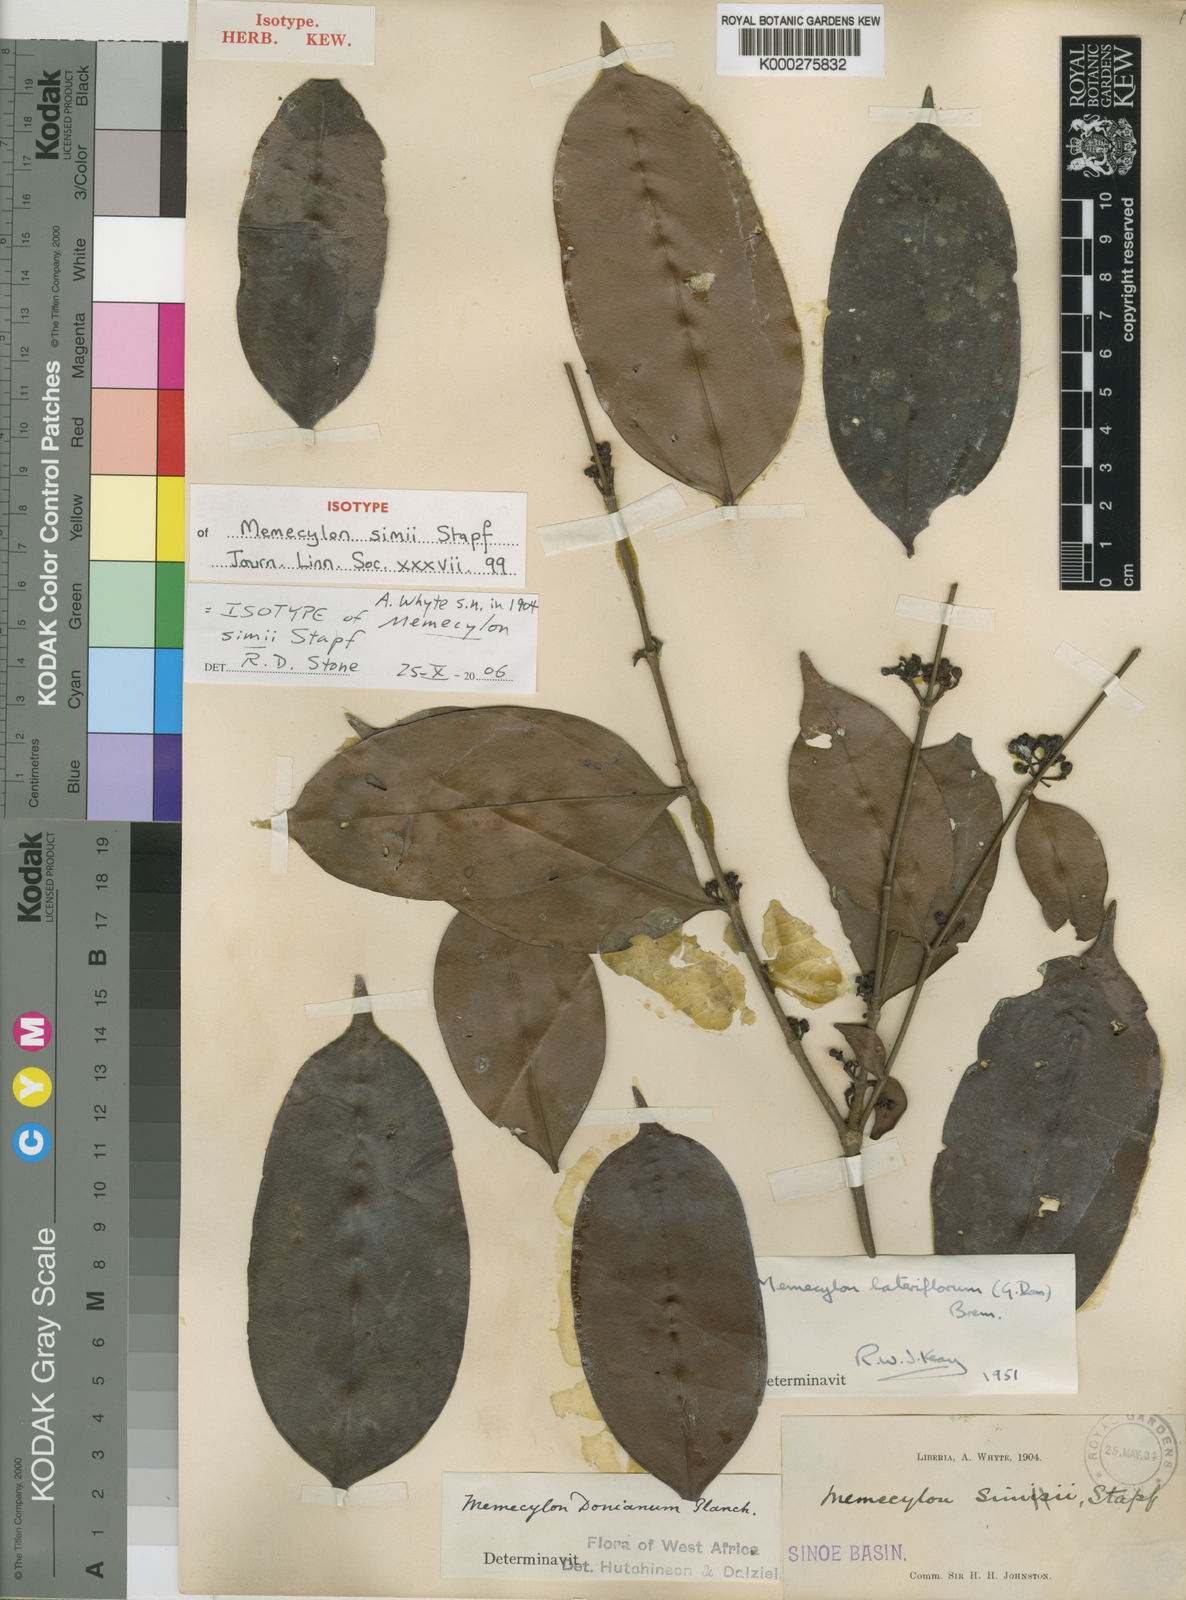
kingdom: Plantae
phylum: Tracheophyta
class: Magnoliopsida
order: Myrtales
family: Melastomataceae
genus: Memecylon
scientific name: Memecylon lateriflorum
